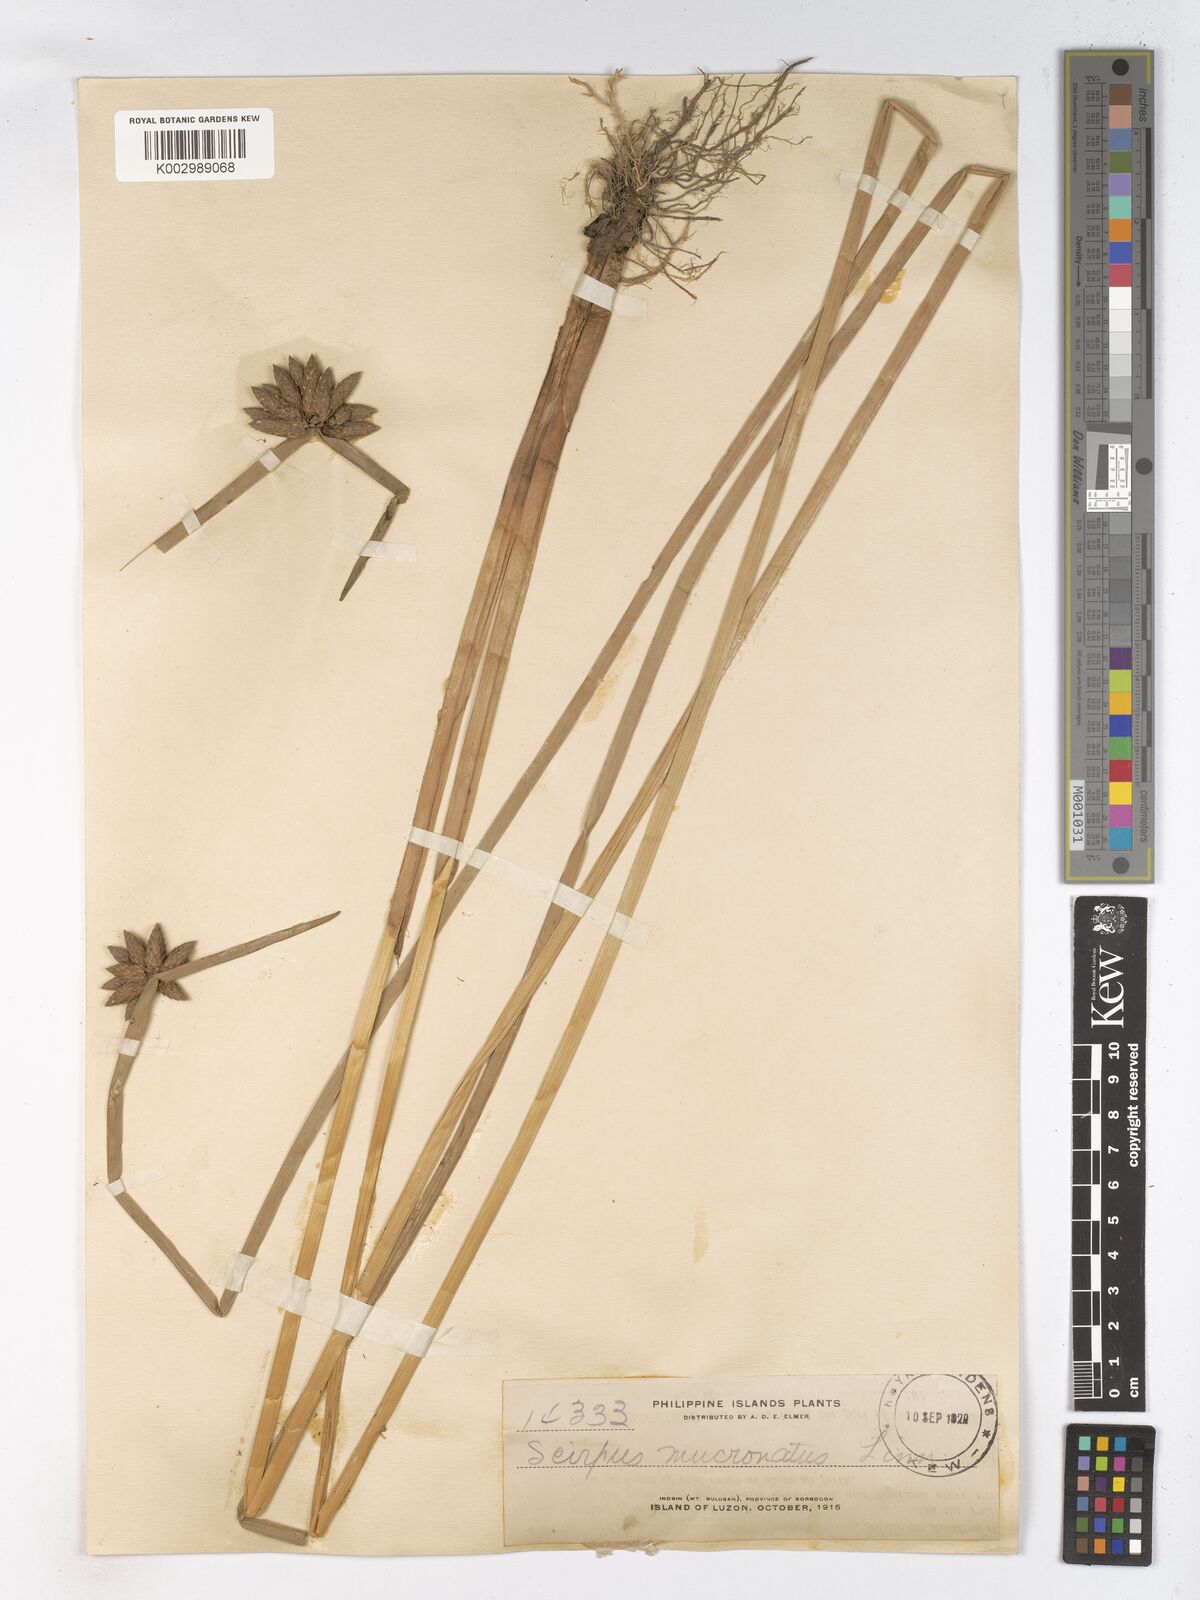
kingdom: Plantae
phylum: Tracheophyta
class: Liliopsida
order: Poales
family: Cyperaceae
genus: Schoenoplectiella
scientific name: Schoenoplectiella mucronata
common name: Bog bulrush
